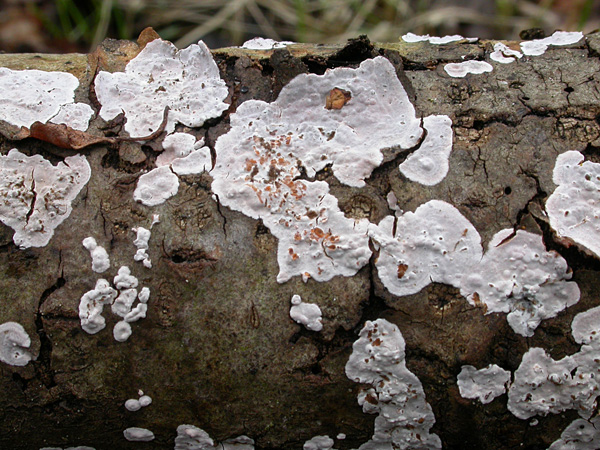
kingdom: Fungi
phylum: Basidiomycota
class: Agaricomycetes
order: Russulales
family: Peniophoraceae
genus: Peniophora
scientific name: Peniophora polygonia
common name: polygon-voksskind
